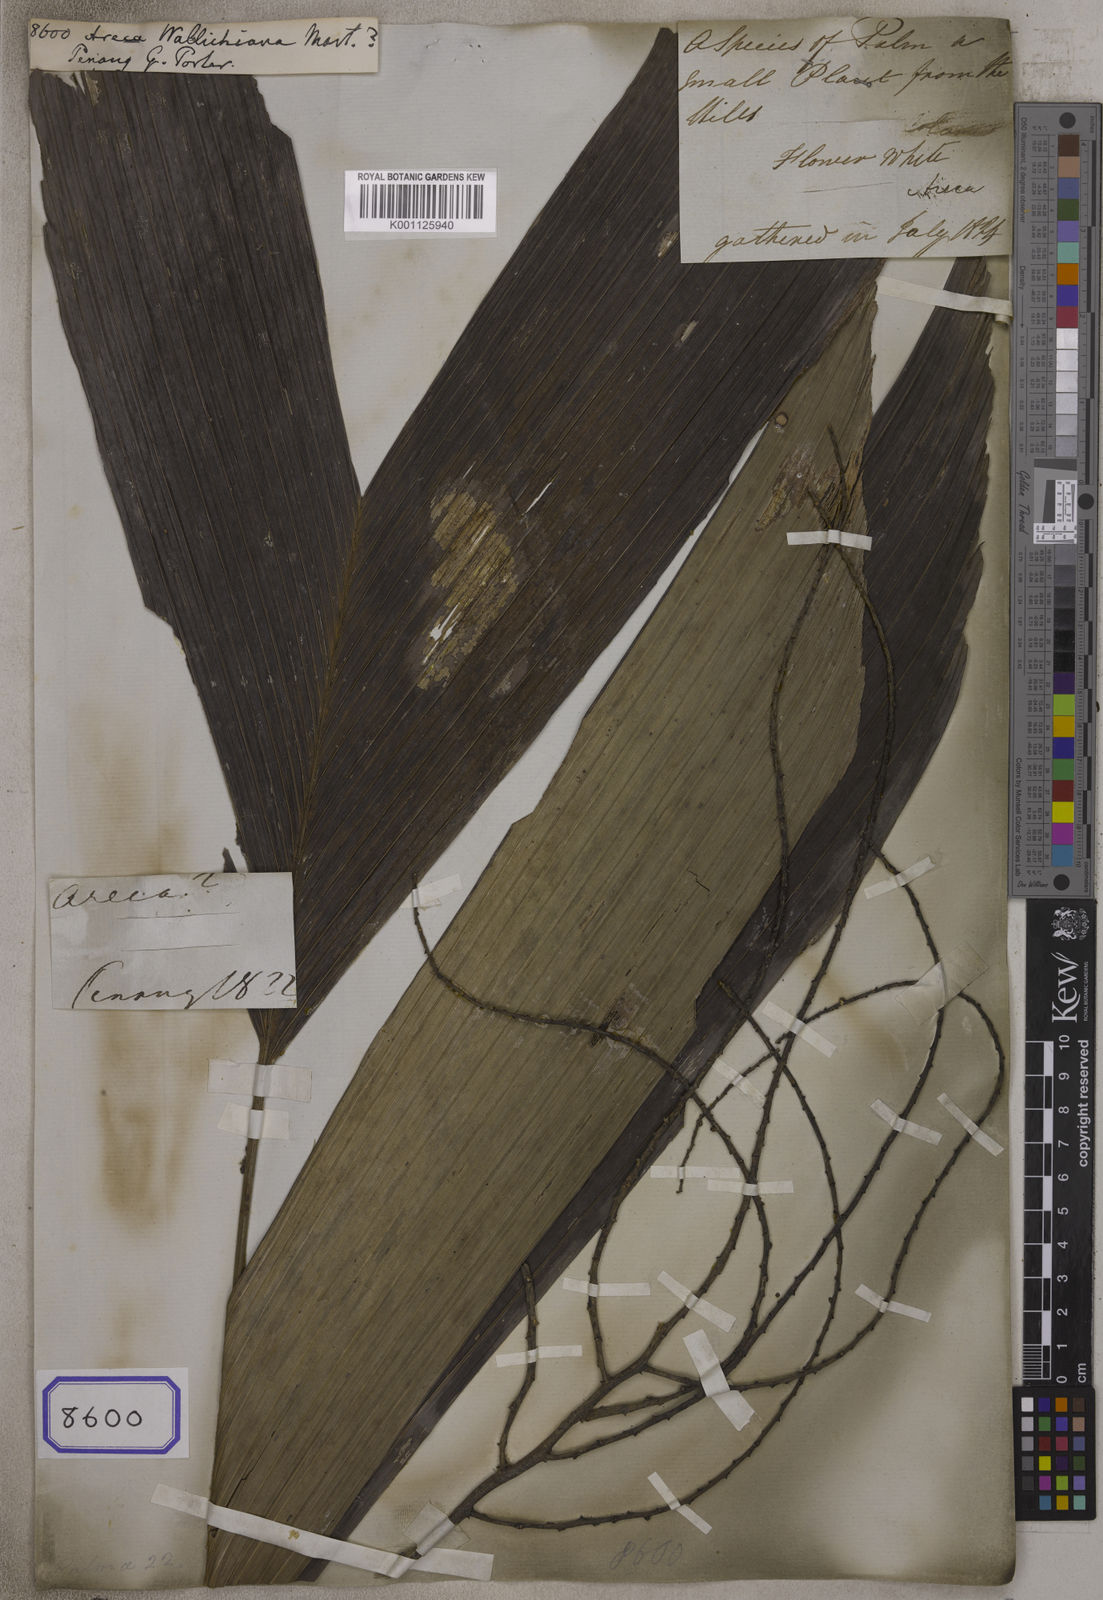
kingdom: Plantae
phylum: Tracheophyta
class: Liliopsida
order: Arecales
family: Arecaceae
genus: Iguanura
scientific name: Iguanura wallichiana
